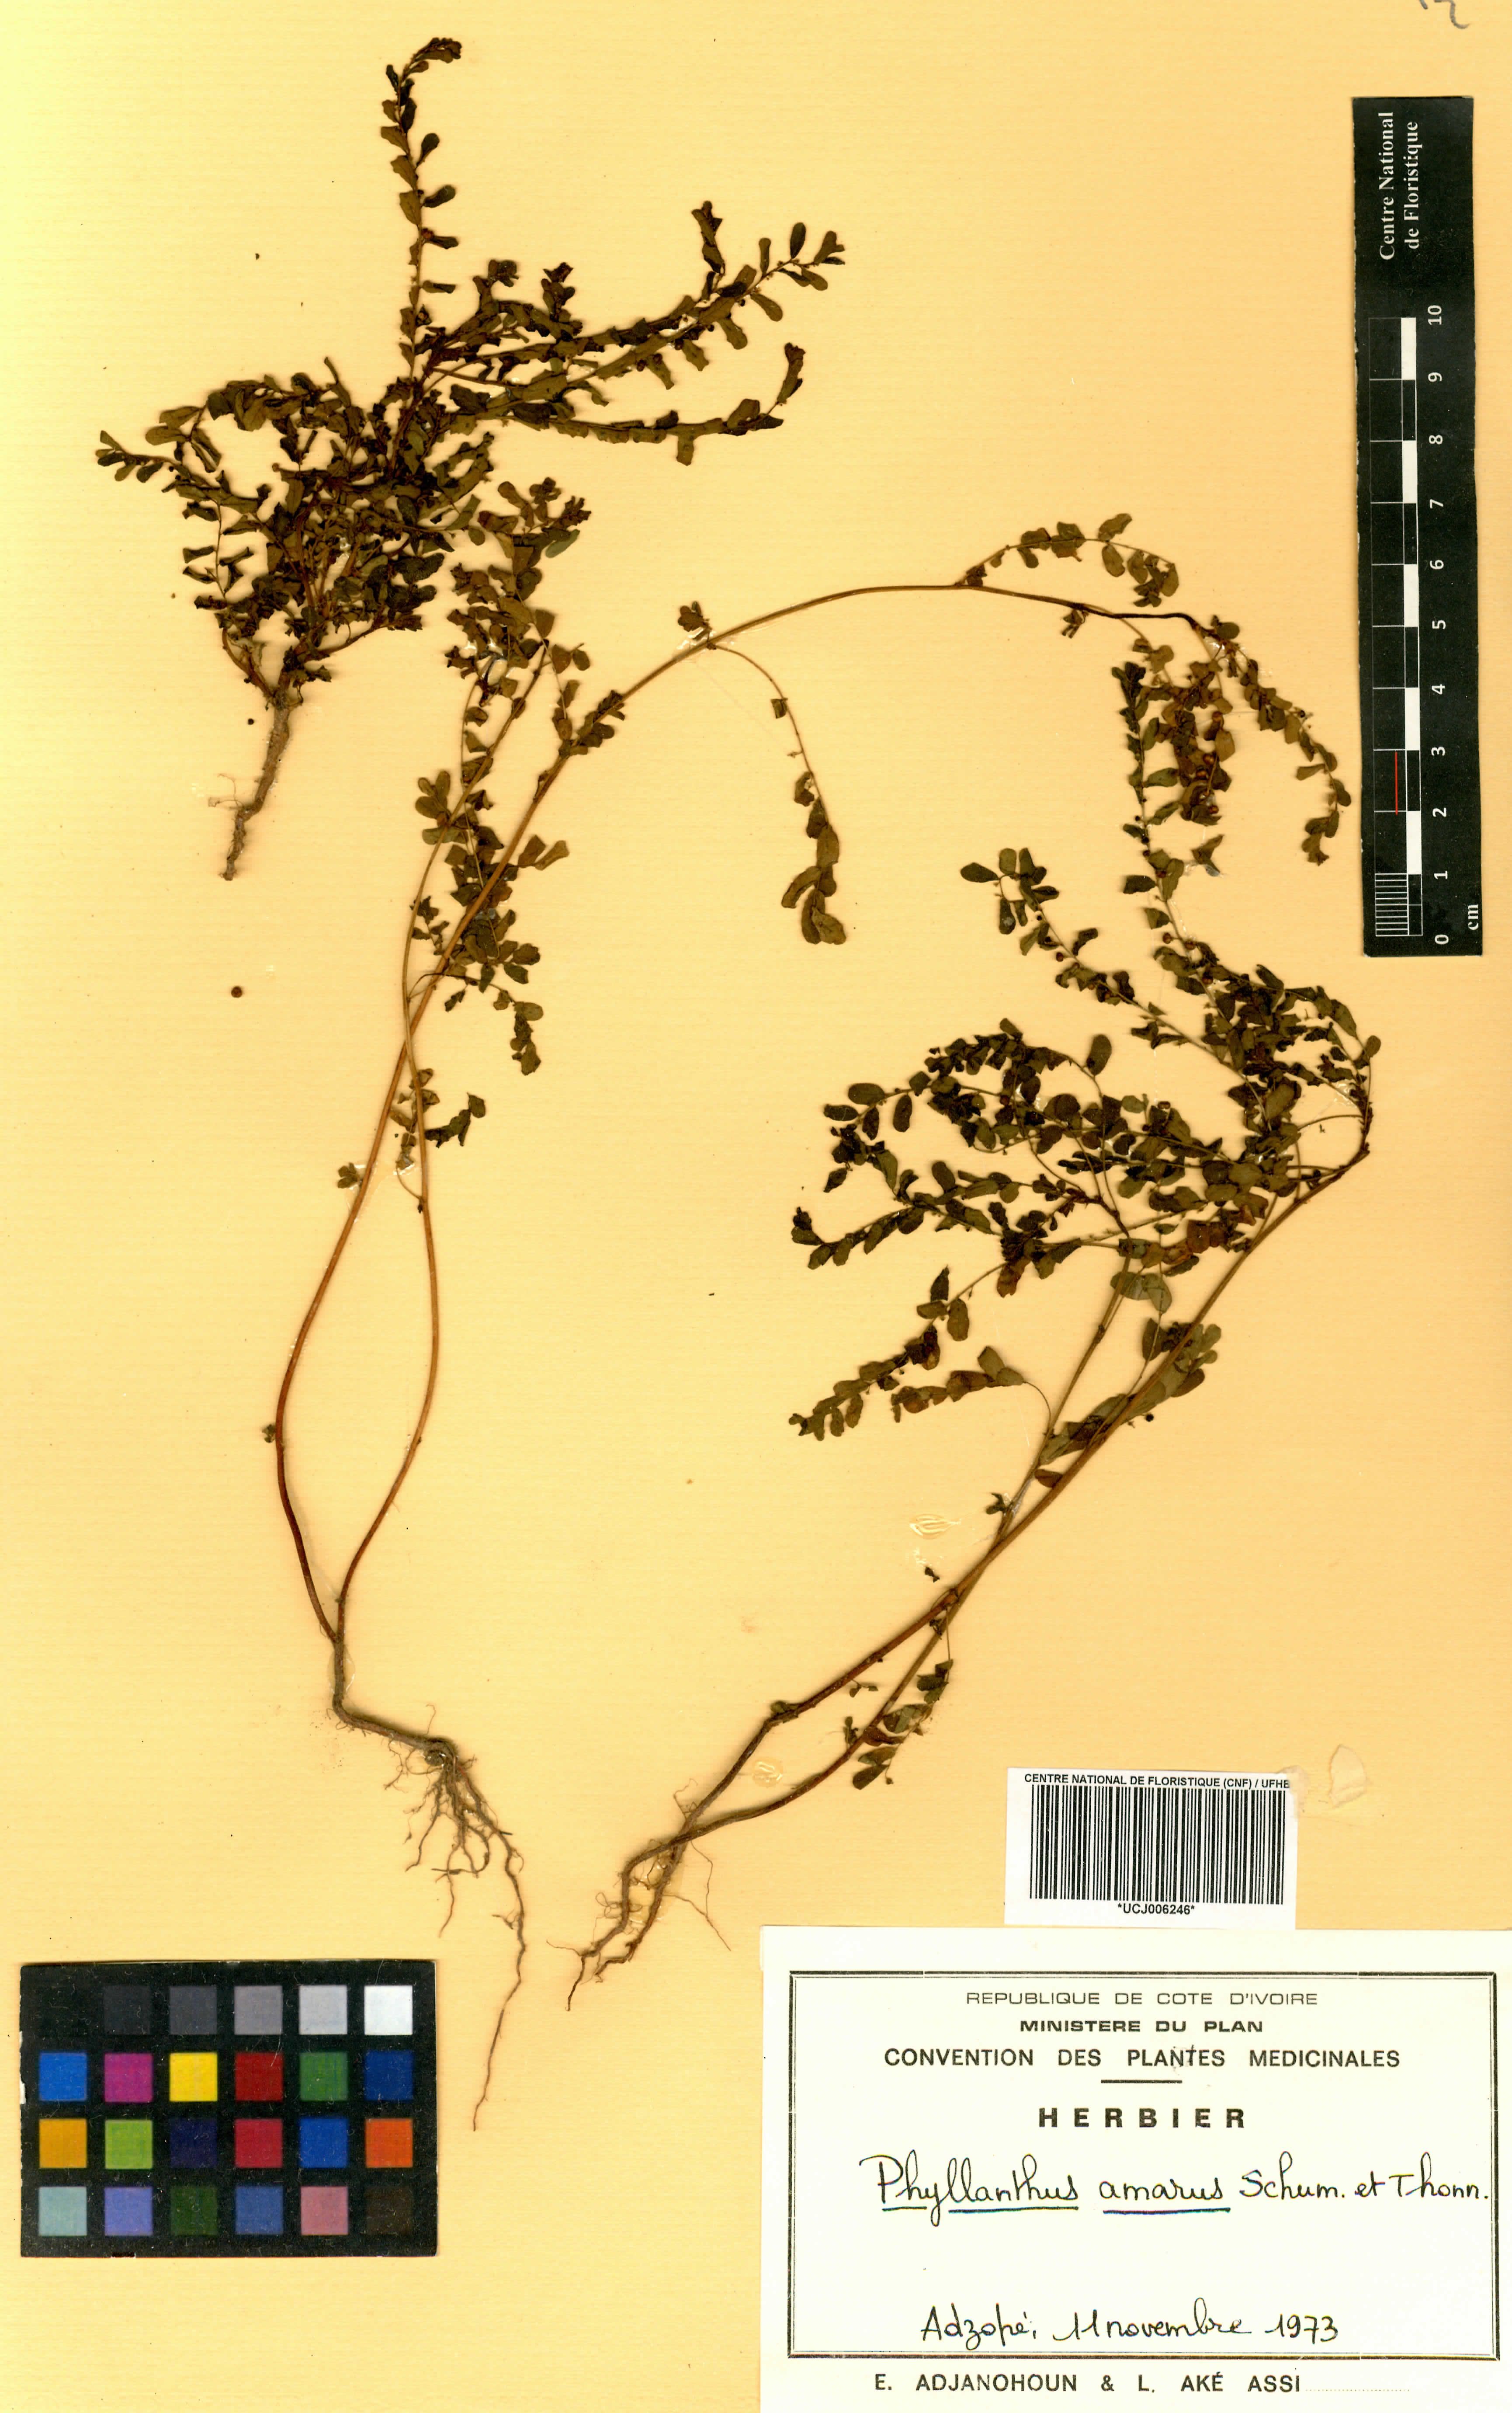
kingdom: Plantae
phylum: Tracheophyta
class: Magnoliopsida
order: Malpighiales
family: Phyllanthaceae
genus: Phyllanthus
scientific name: Phyllanthus amarus
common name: Carry me seed
